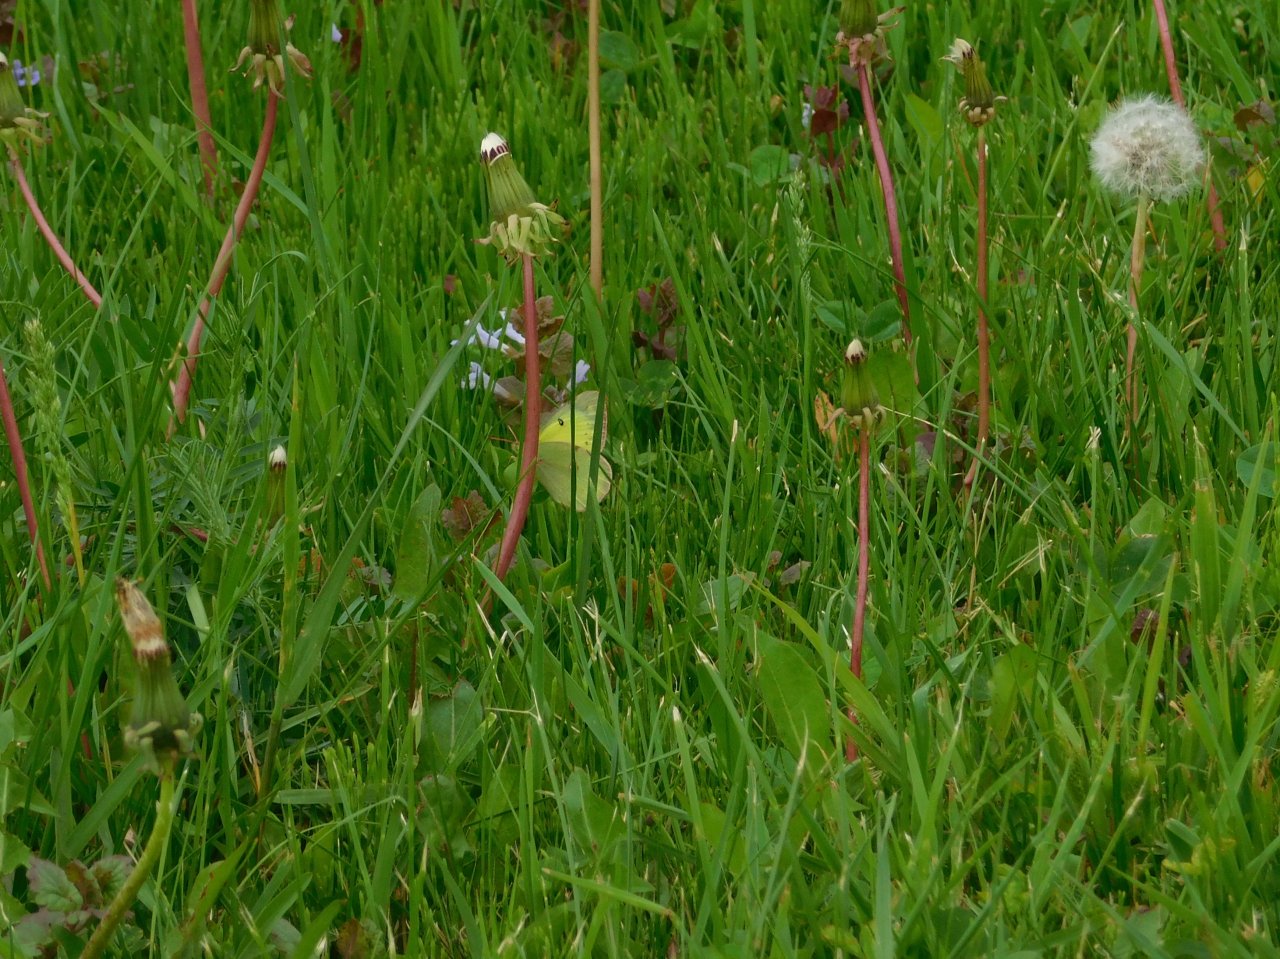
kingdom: Animalia
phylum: Arthropoda
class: Insecta
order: Lepidoptera
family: Pieridae
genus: Colias
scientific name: Colias philodice
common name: Clouded Sulphur
